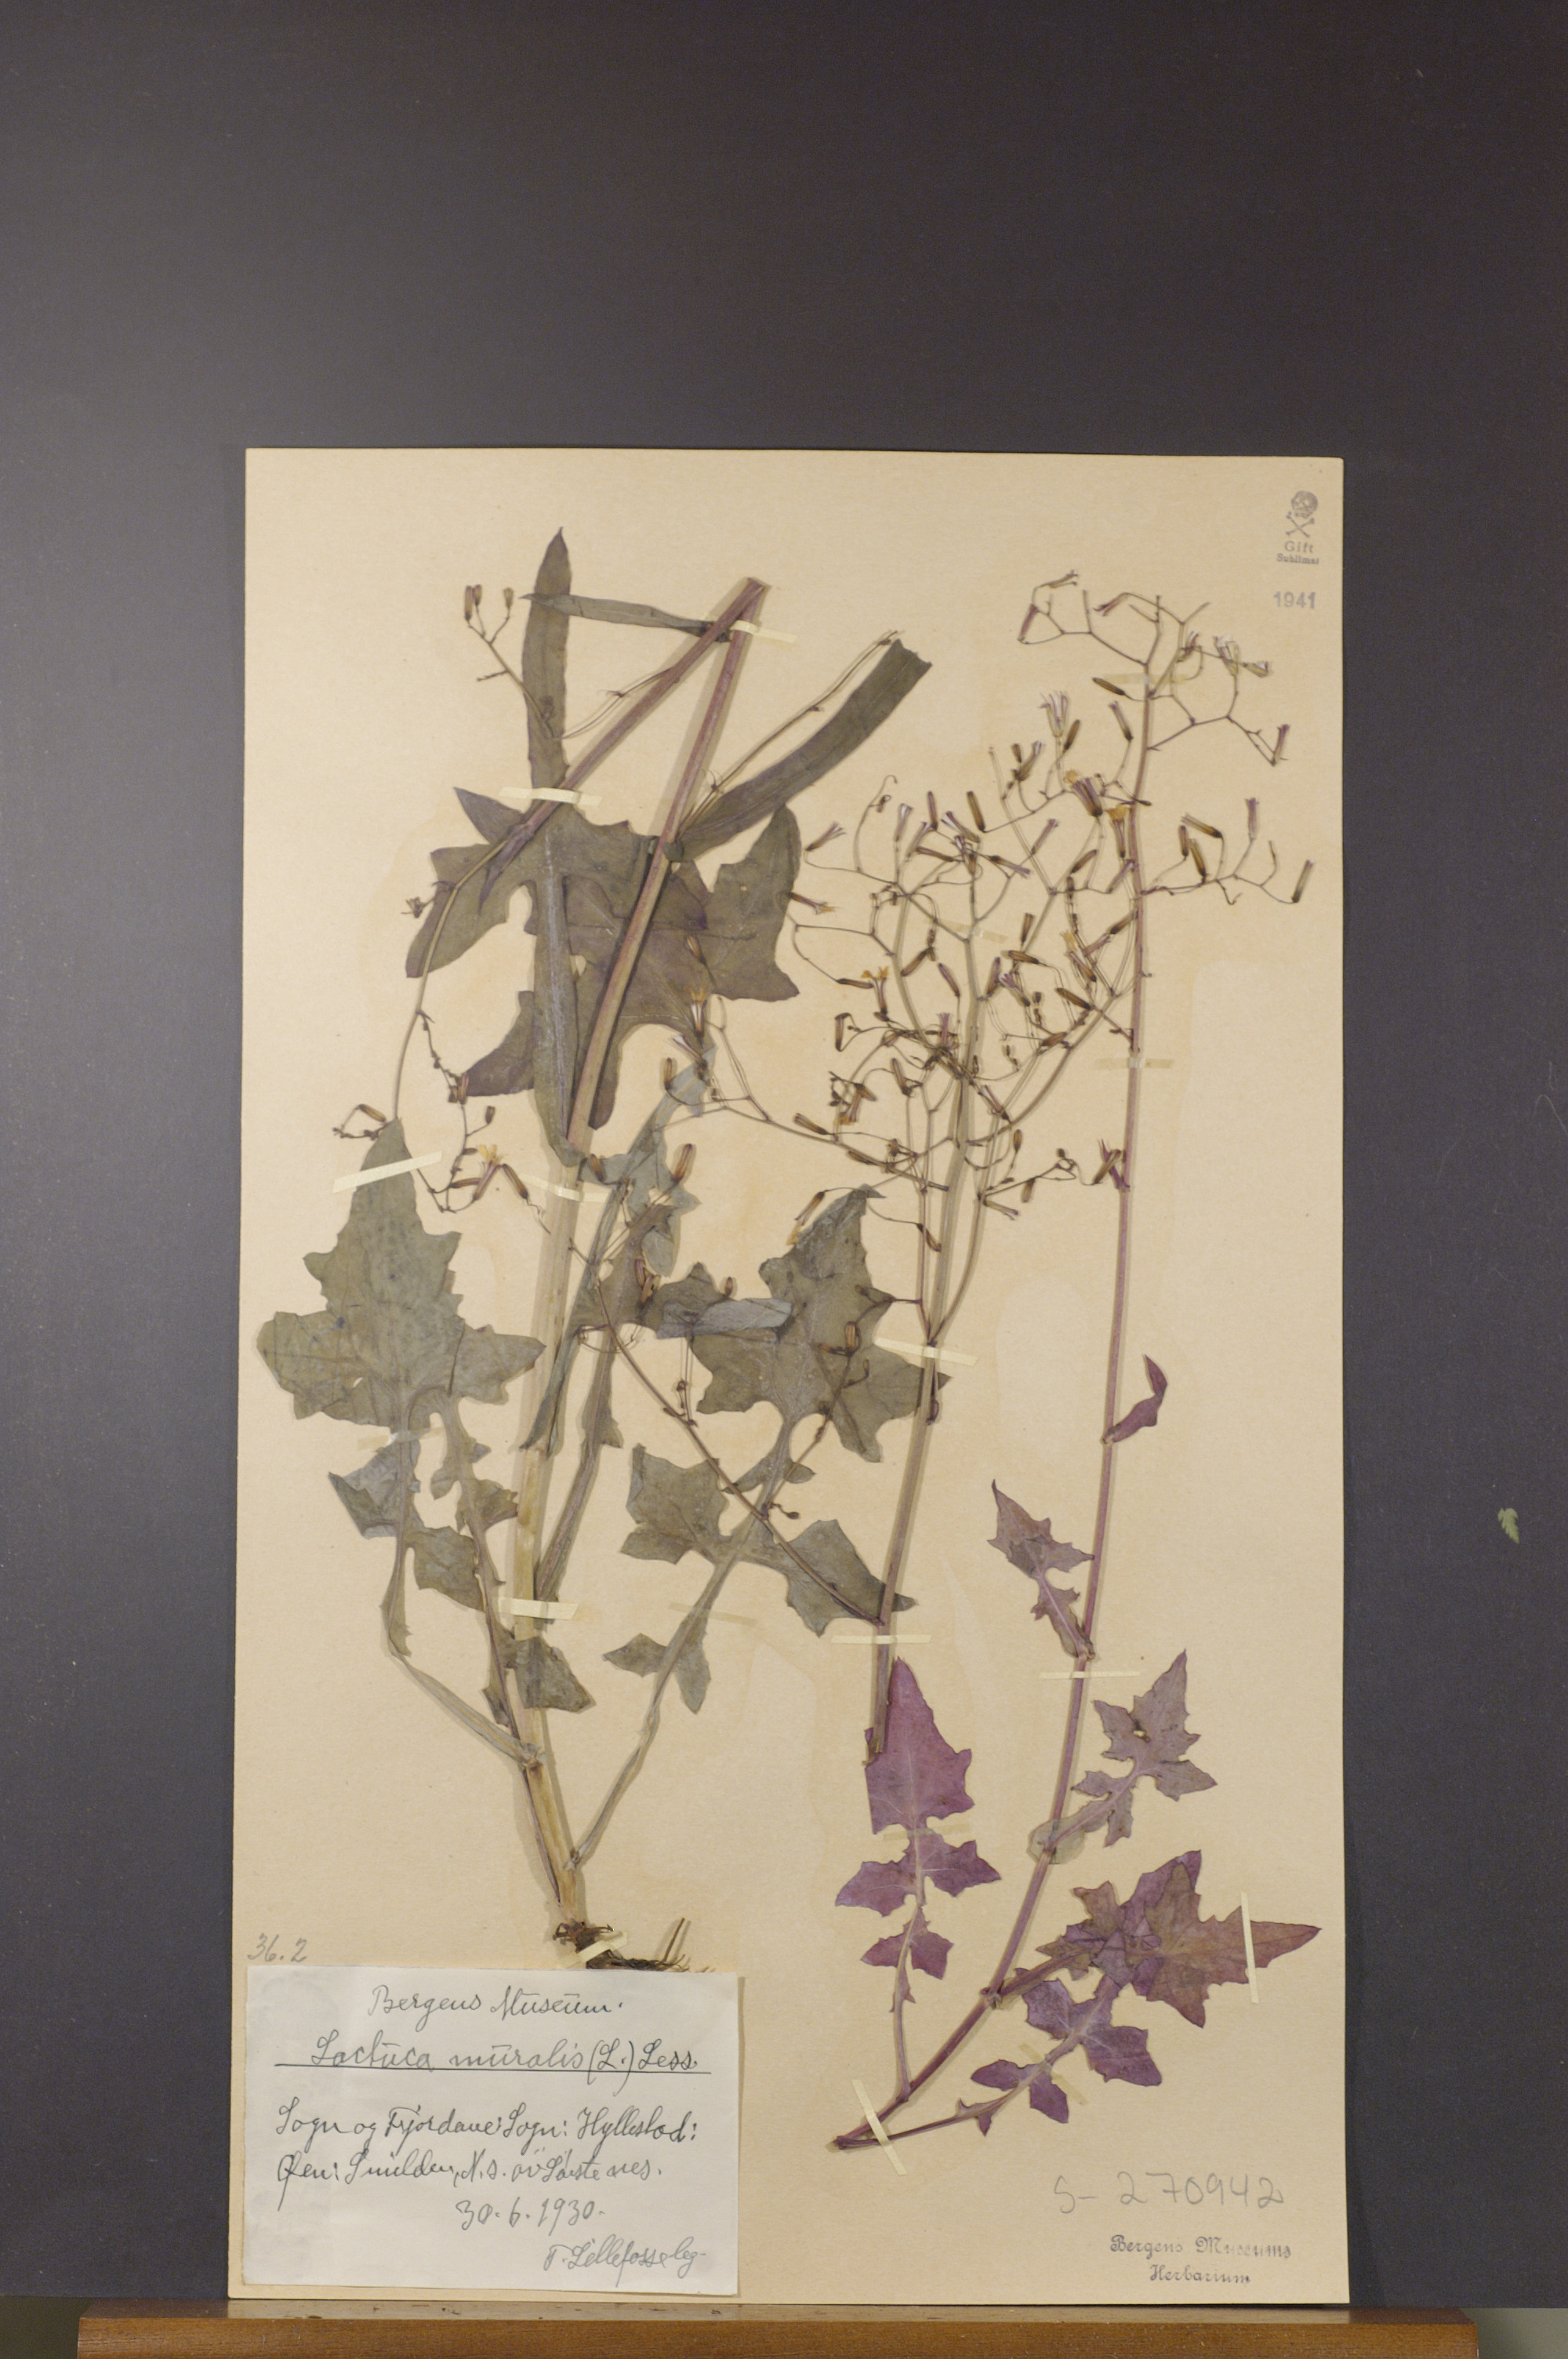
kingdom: Plantae
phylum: Tracheophyta
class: Magnoliopsida
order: Asterales
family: Asteraceae
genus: Mycelis
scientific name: Mycelis muralis
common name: Wall lettuce
